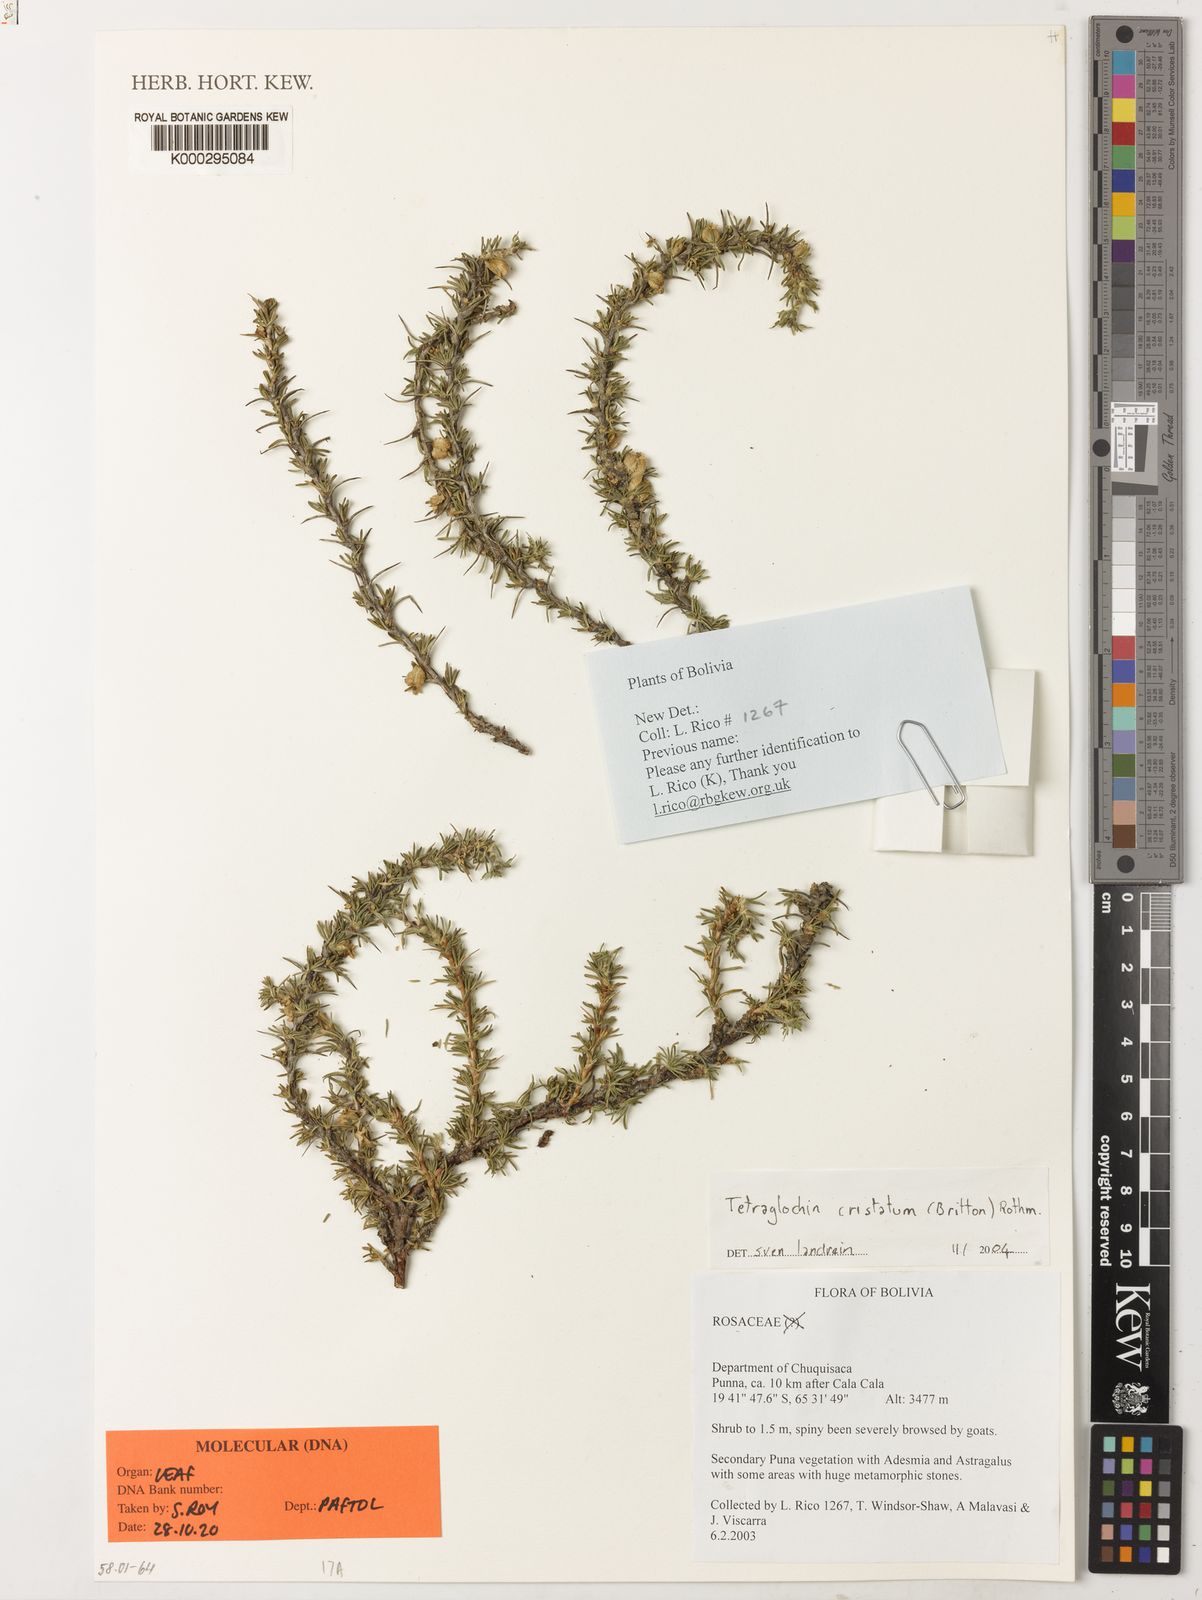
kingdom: Plantae
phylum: Tracheophyta
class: Magnoliopsida
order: Rosales
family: Rosaceae
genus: Margyricarpus
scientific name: Margyricarpus cristatus
